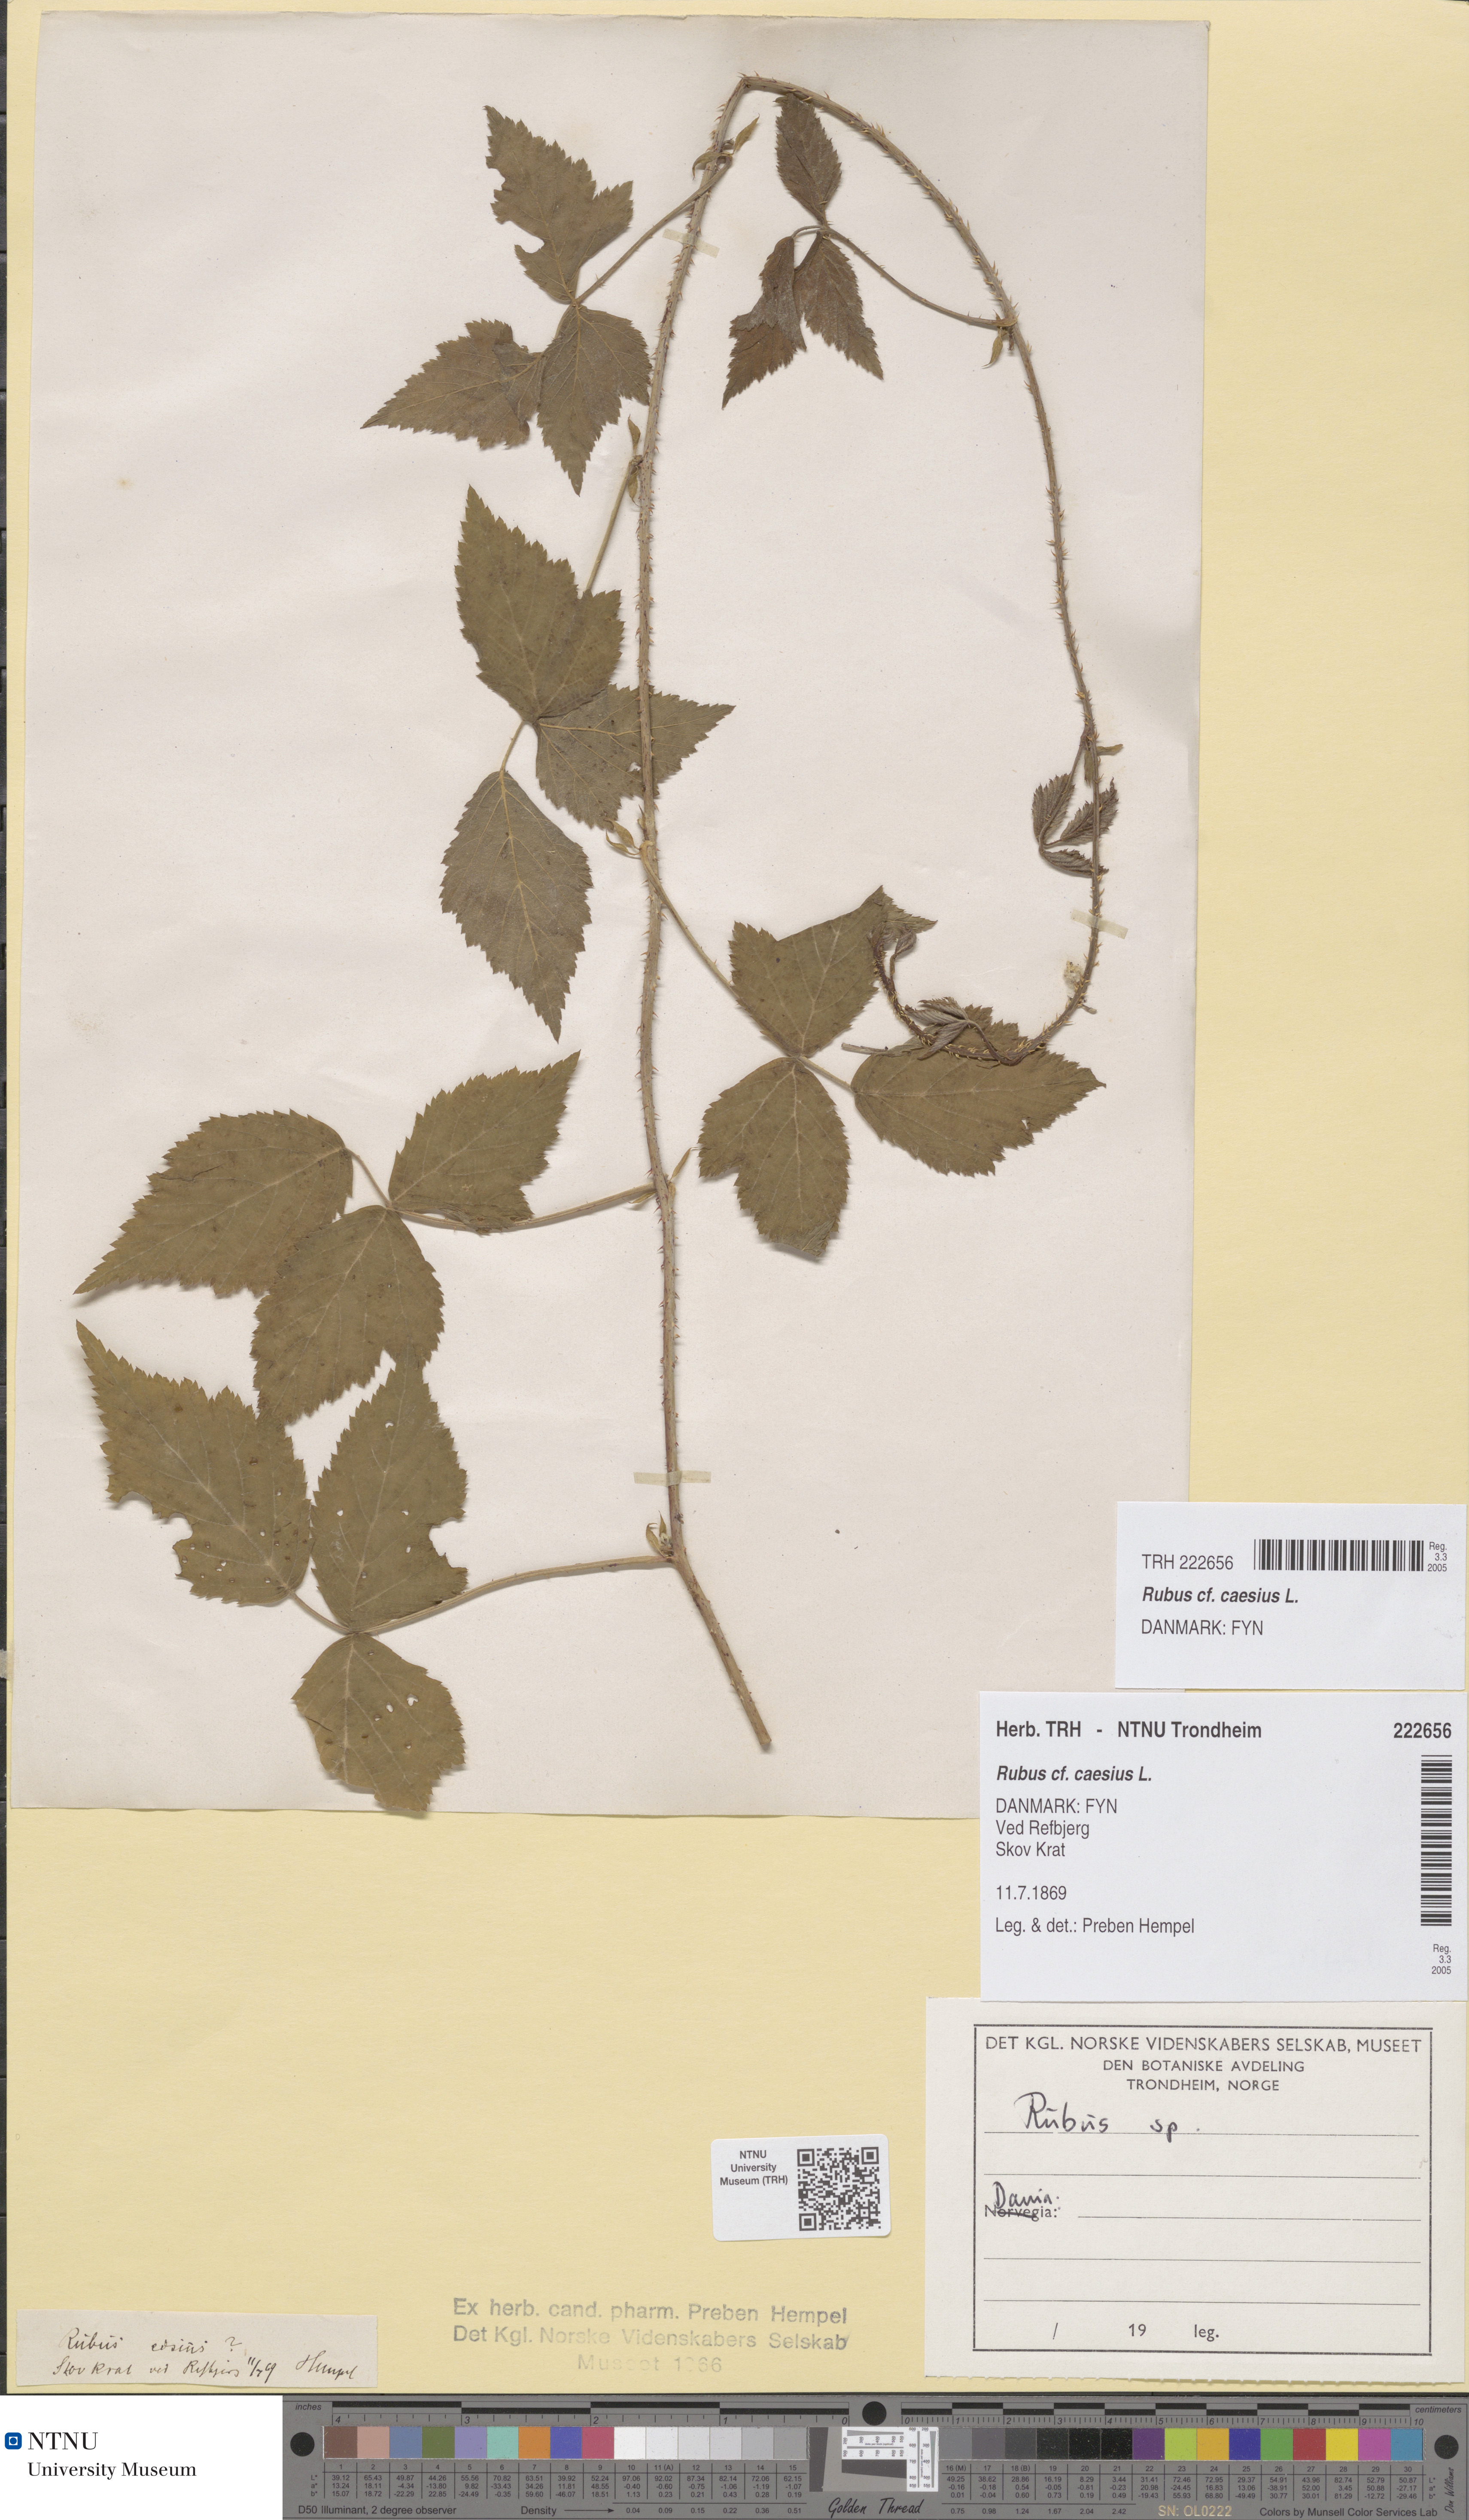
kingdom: Plantae
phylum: Tracheophyta
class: Magnoliopsida
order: Rosales
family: Rosaceae
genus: Rubus
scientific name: Rubus caesius
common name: Dewberry
